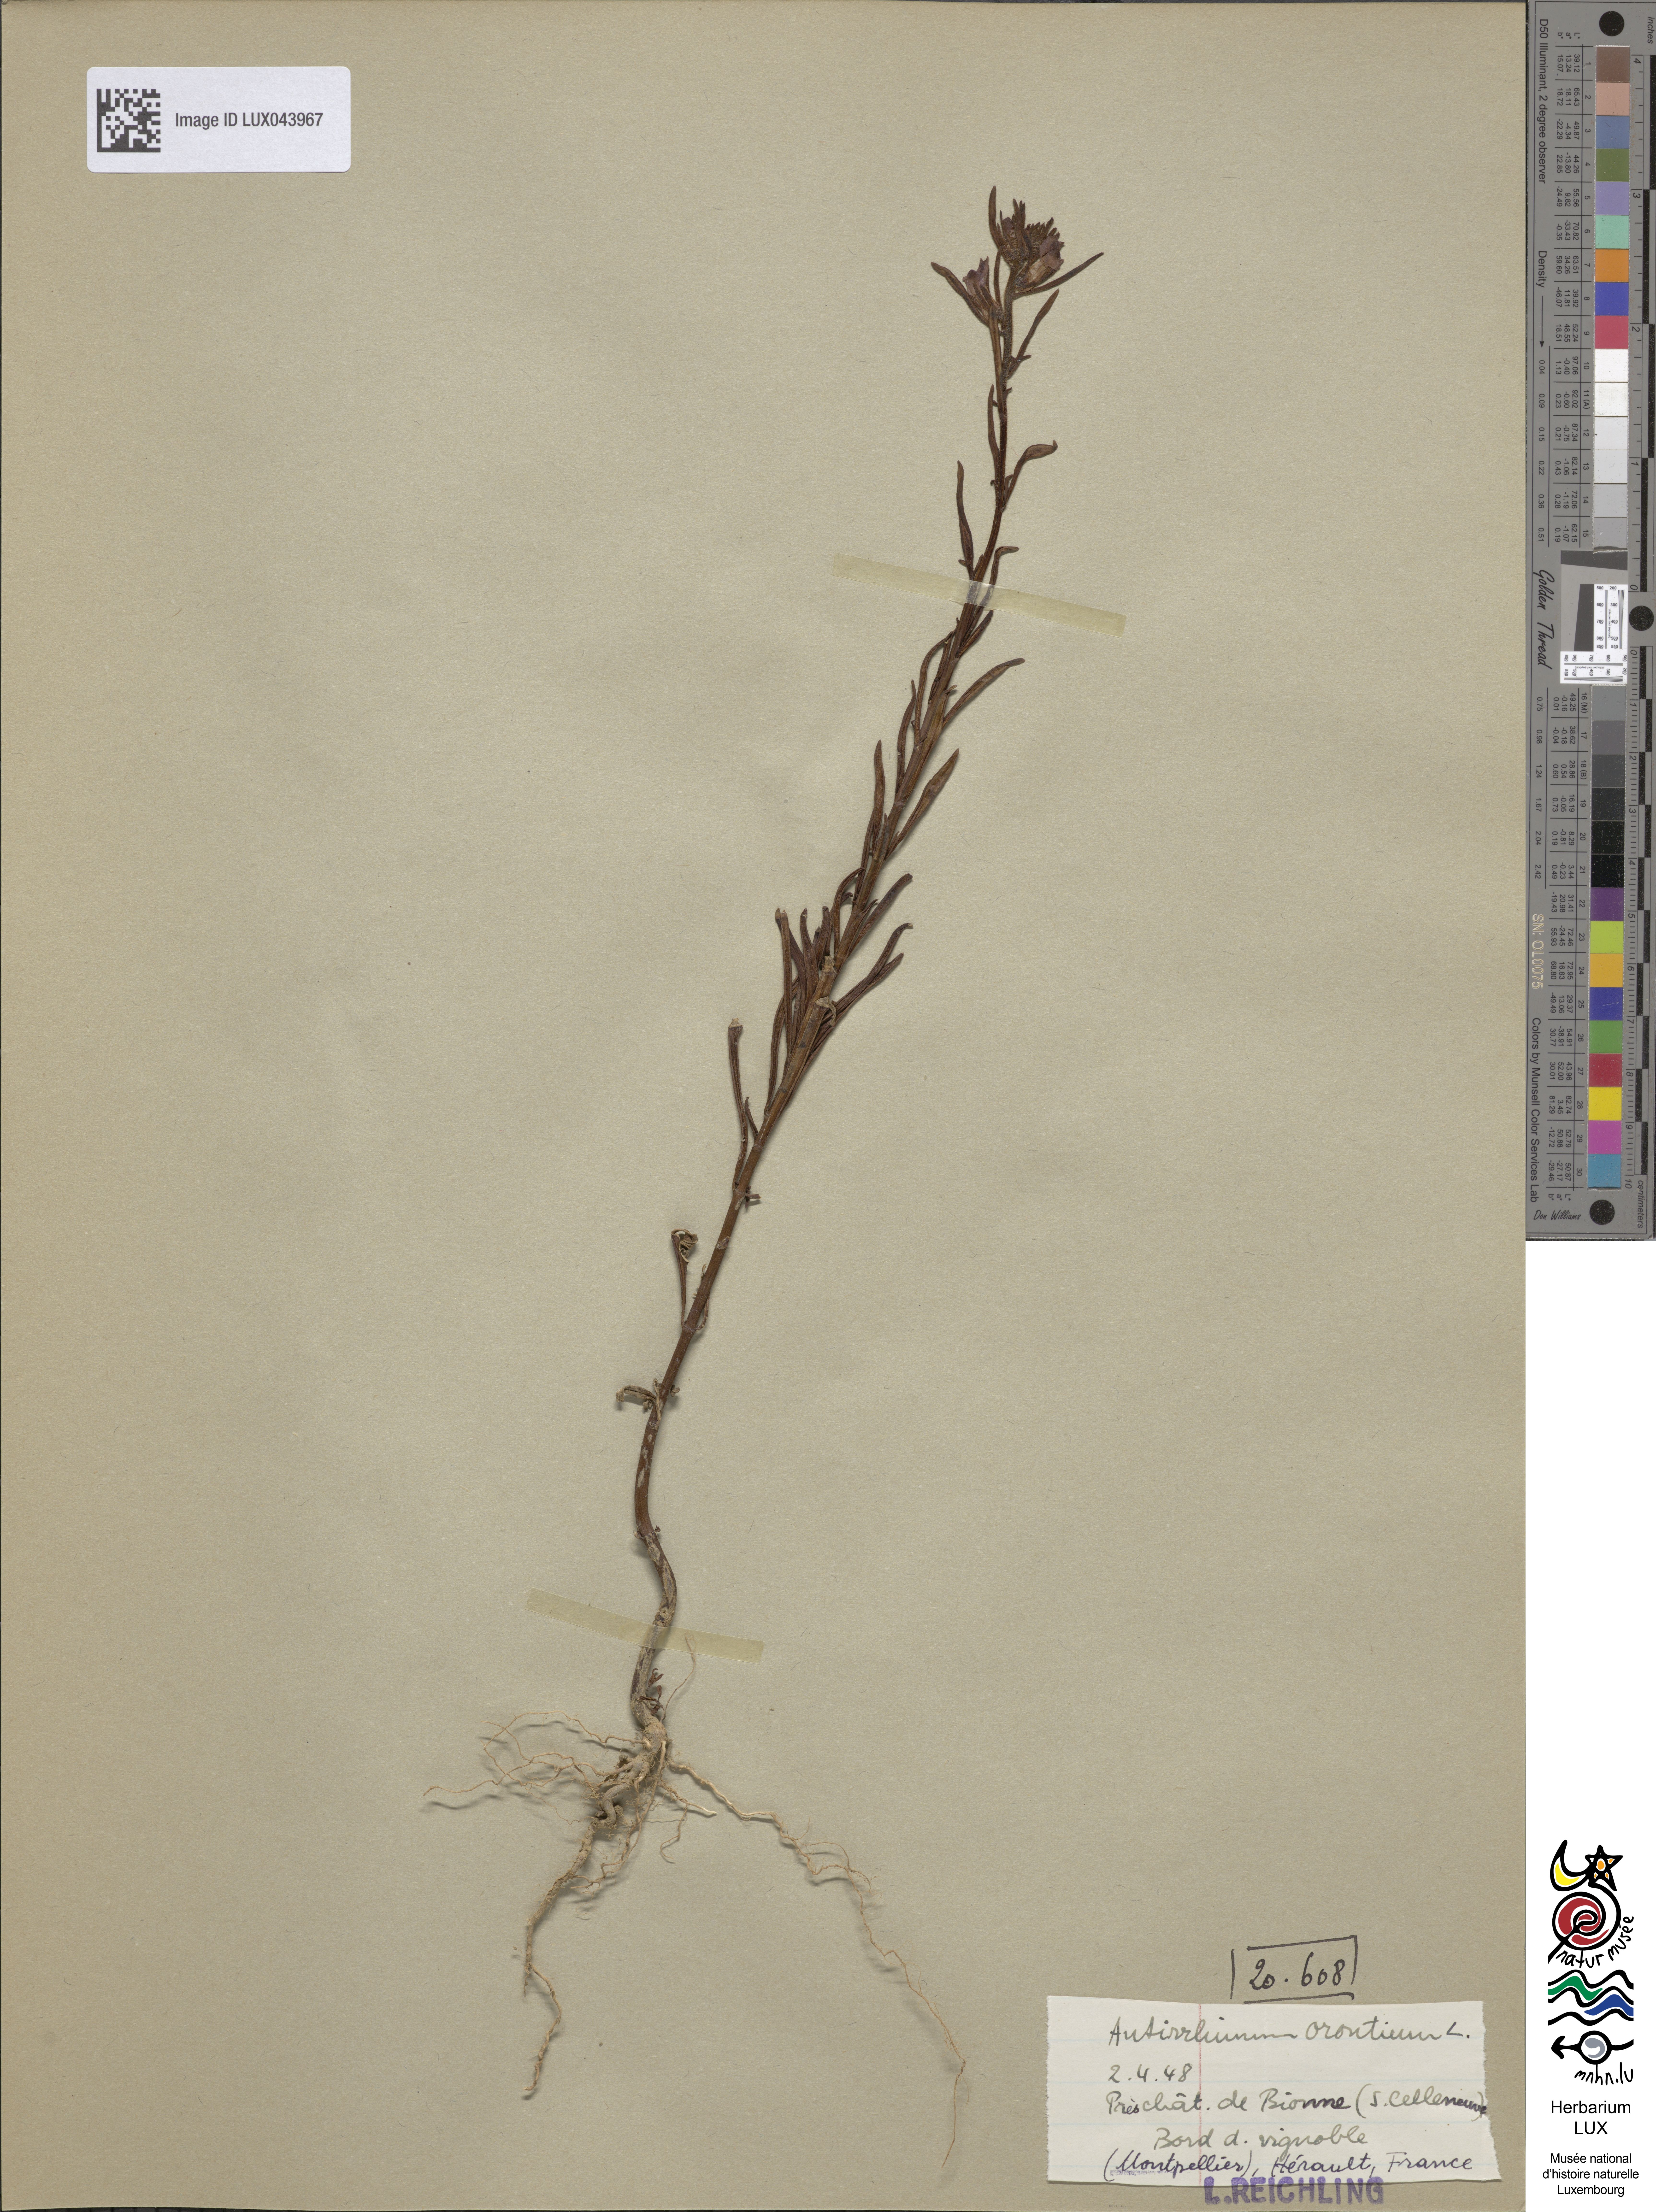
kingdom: Plantae
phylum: Tracheophyta
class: Magnoliopsida
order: Lamiales
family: Plantaginaceae
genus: Misopates
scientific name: Misopates orontium
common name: Weasel's-snout
